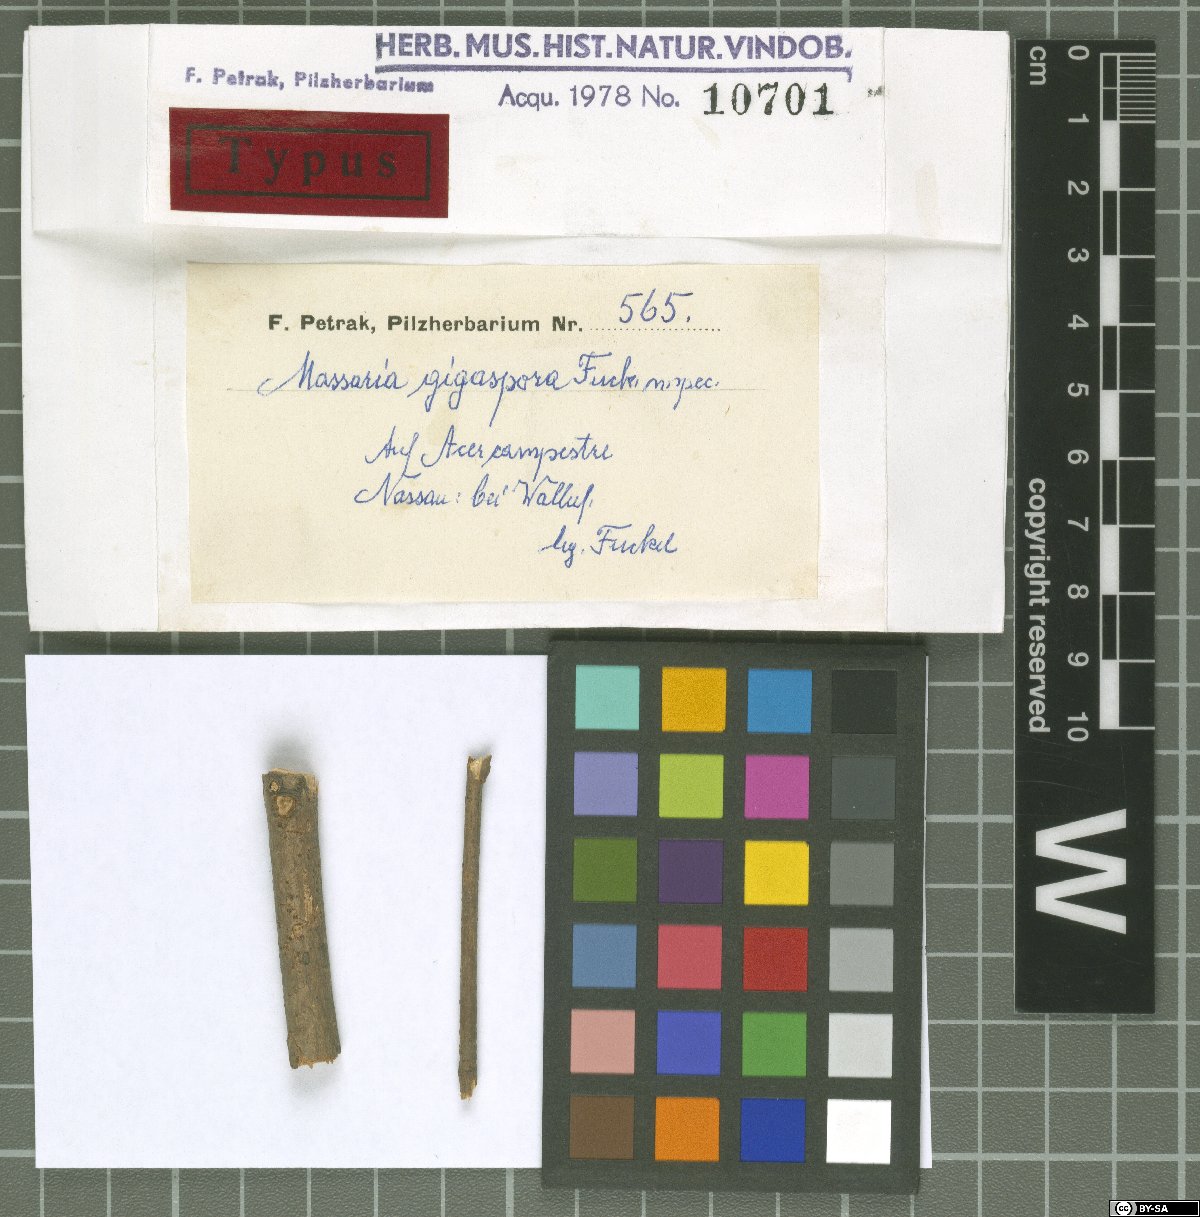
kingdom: Fungi
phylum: Ascomycota
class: Dothideomycetes
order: Pleosporales
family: Massariaceae
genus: Massaria
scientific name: Massaria gigantispora
